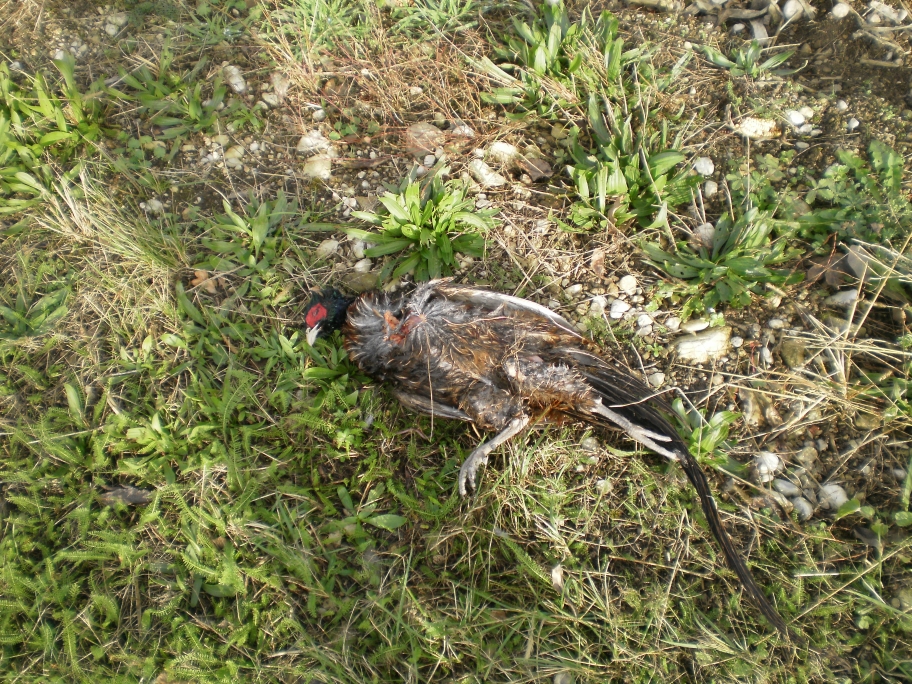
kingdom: Animalia
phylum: Chordata
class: Aves
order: Galliformes
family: Phasianidae
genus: Phasianus
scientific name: Phasianus colchicus
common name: Common pheasant
